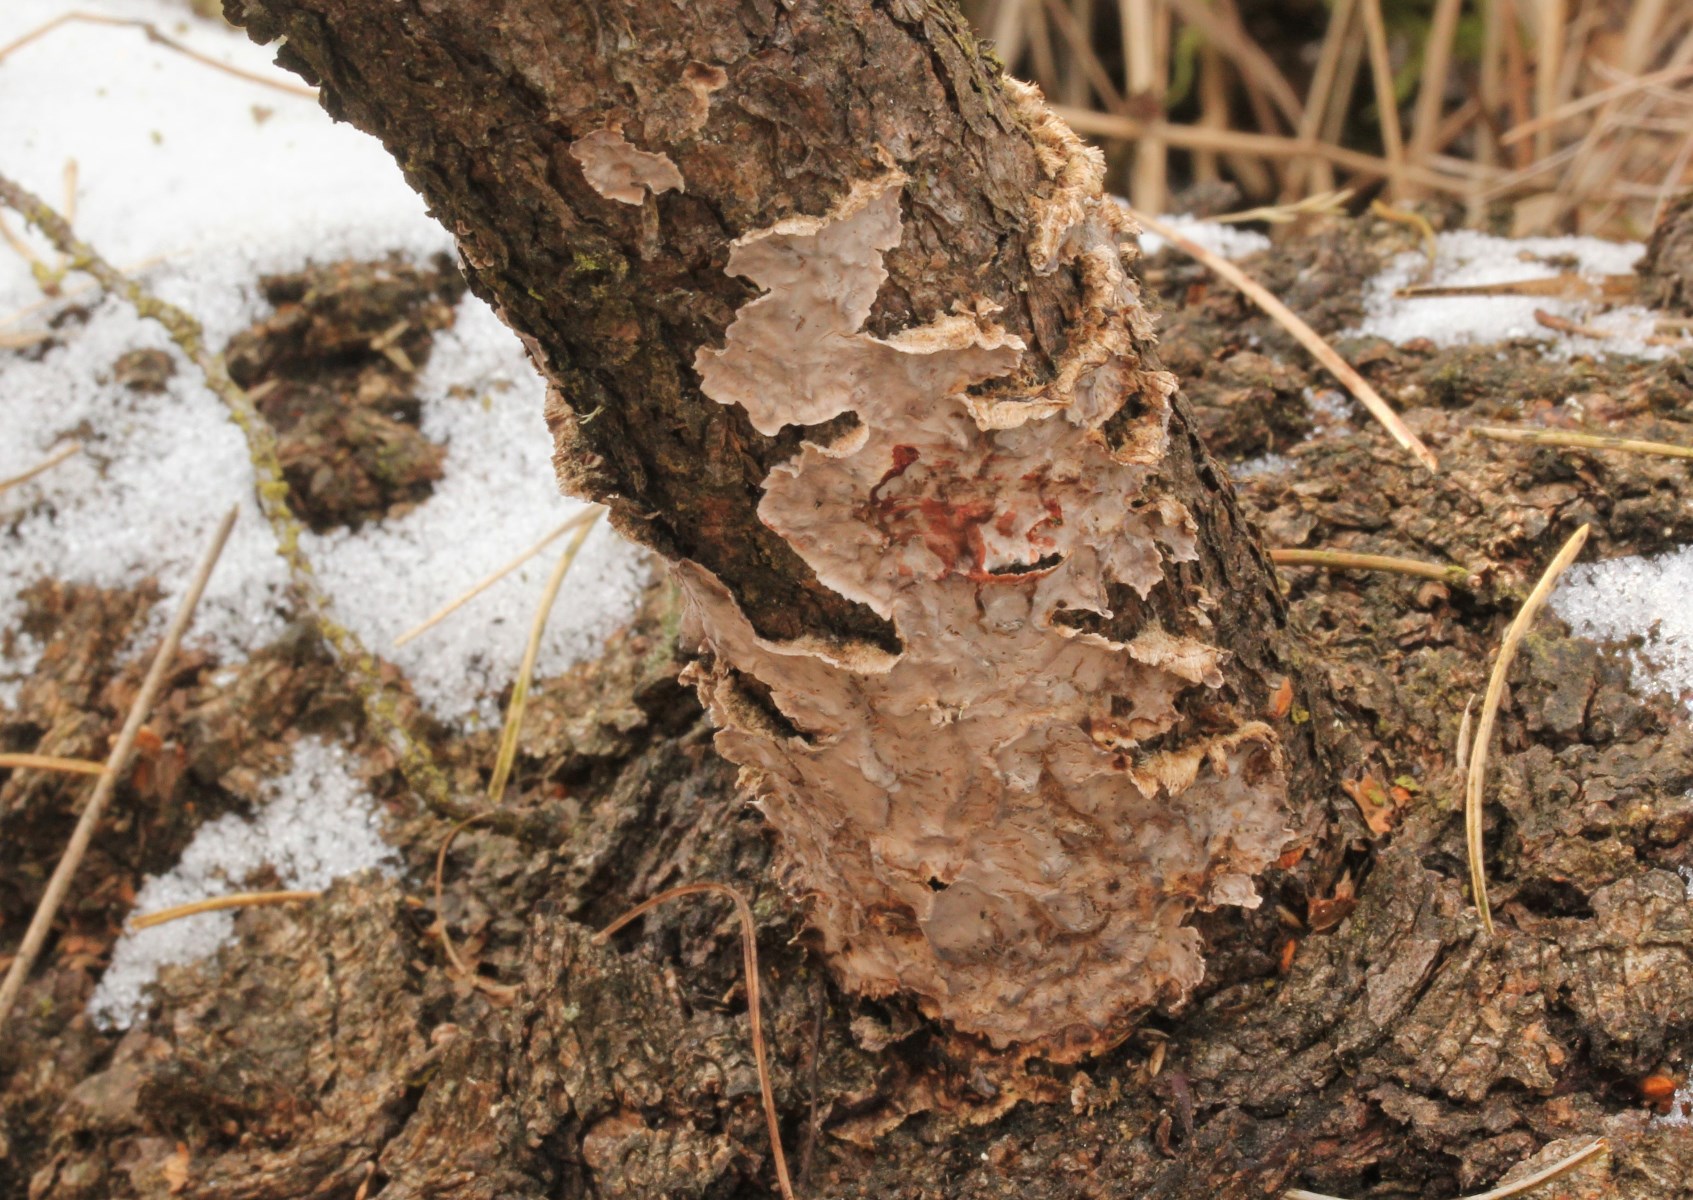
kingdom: Fungi
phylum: Basidiomycota
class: Agaricomycetes
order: Russulales
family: Stereaceae
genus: Stereum
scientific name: Stereum sanguinolentum
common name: blødende lædersvamp
